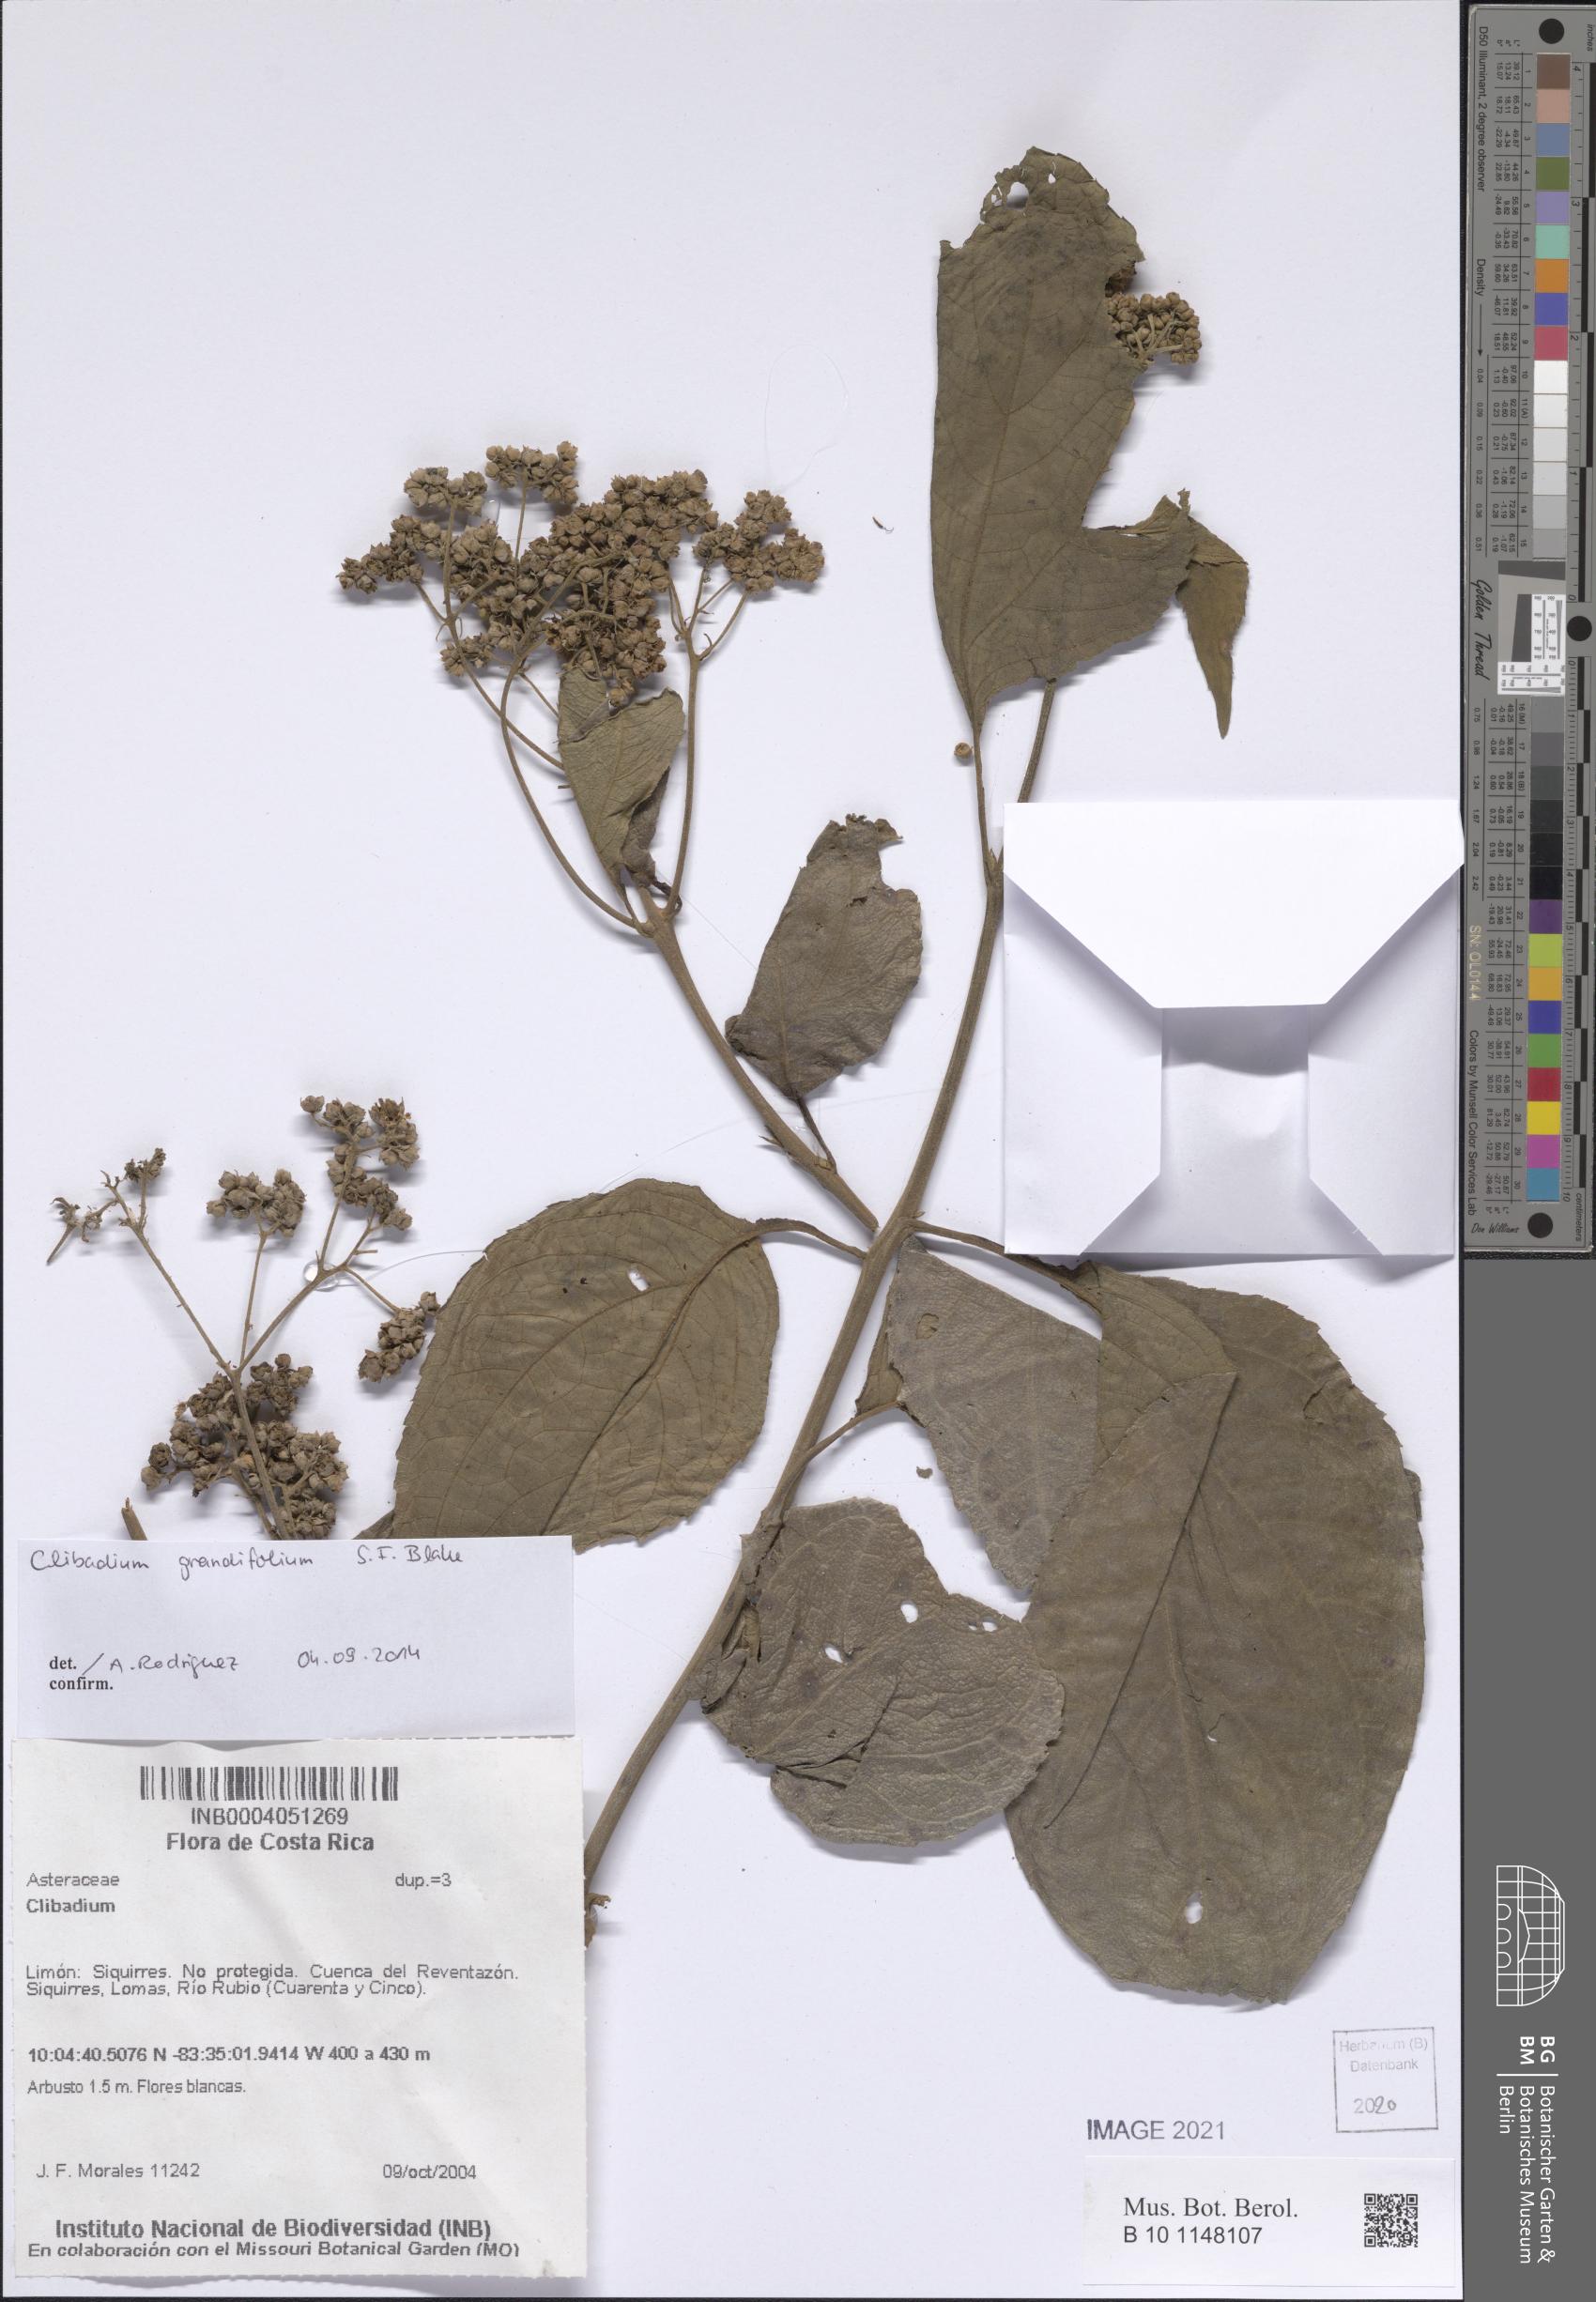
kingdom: Plantae
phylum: Tracheophyta
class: Magnoliopsida
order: Asterales
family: Asteraceae
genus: Clibadium
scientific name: Clibadium grandifolium
